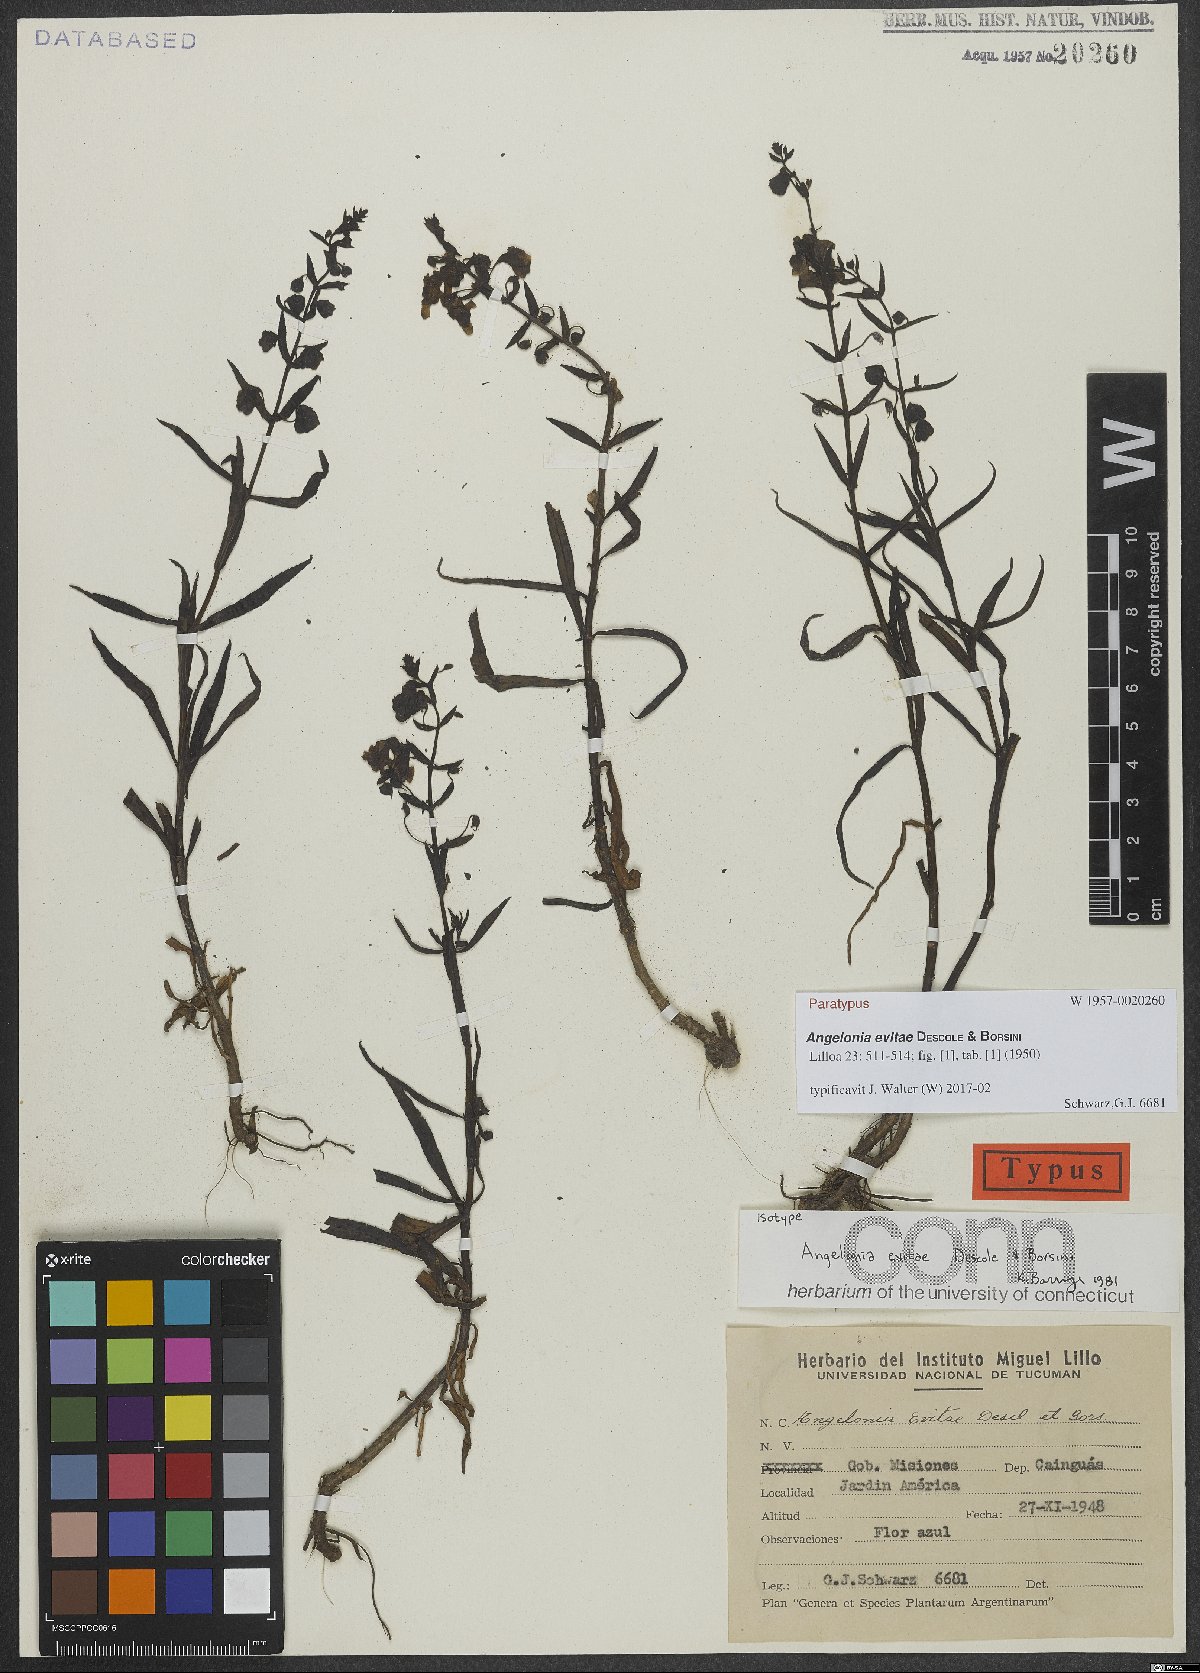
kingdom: Plantae
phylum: Tracheophyta
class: Magnoliopsida
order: Lamiales
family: Plantaginaceae
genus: Angelonia
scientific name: Angelonia salicariifolia
